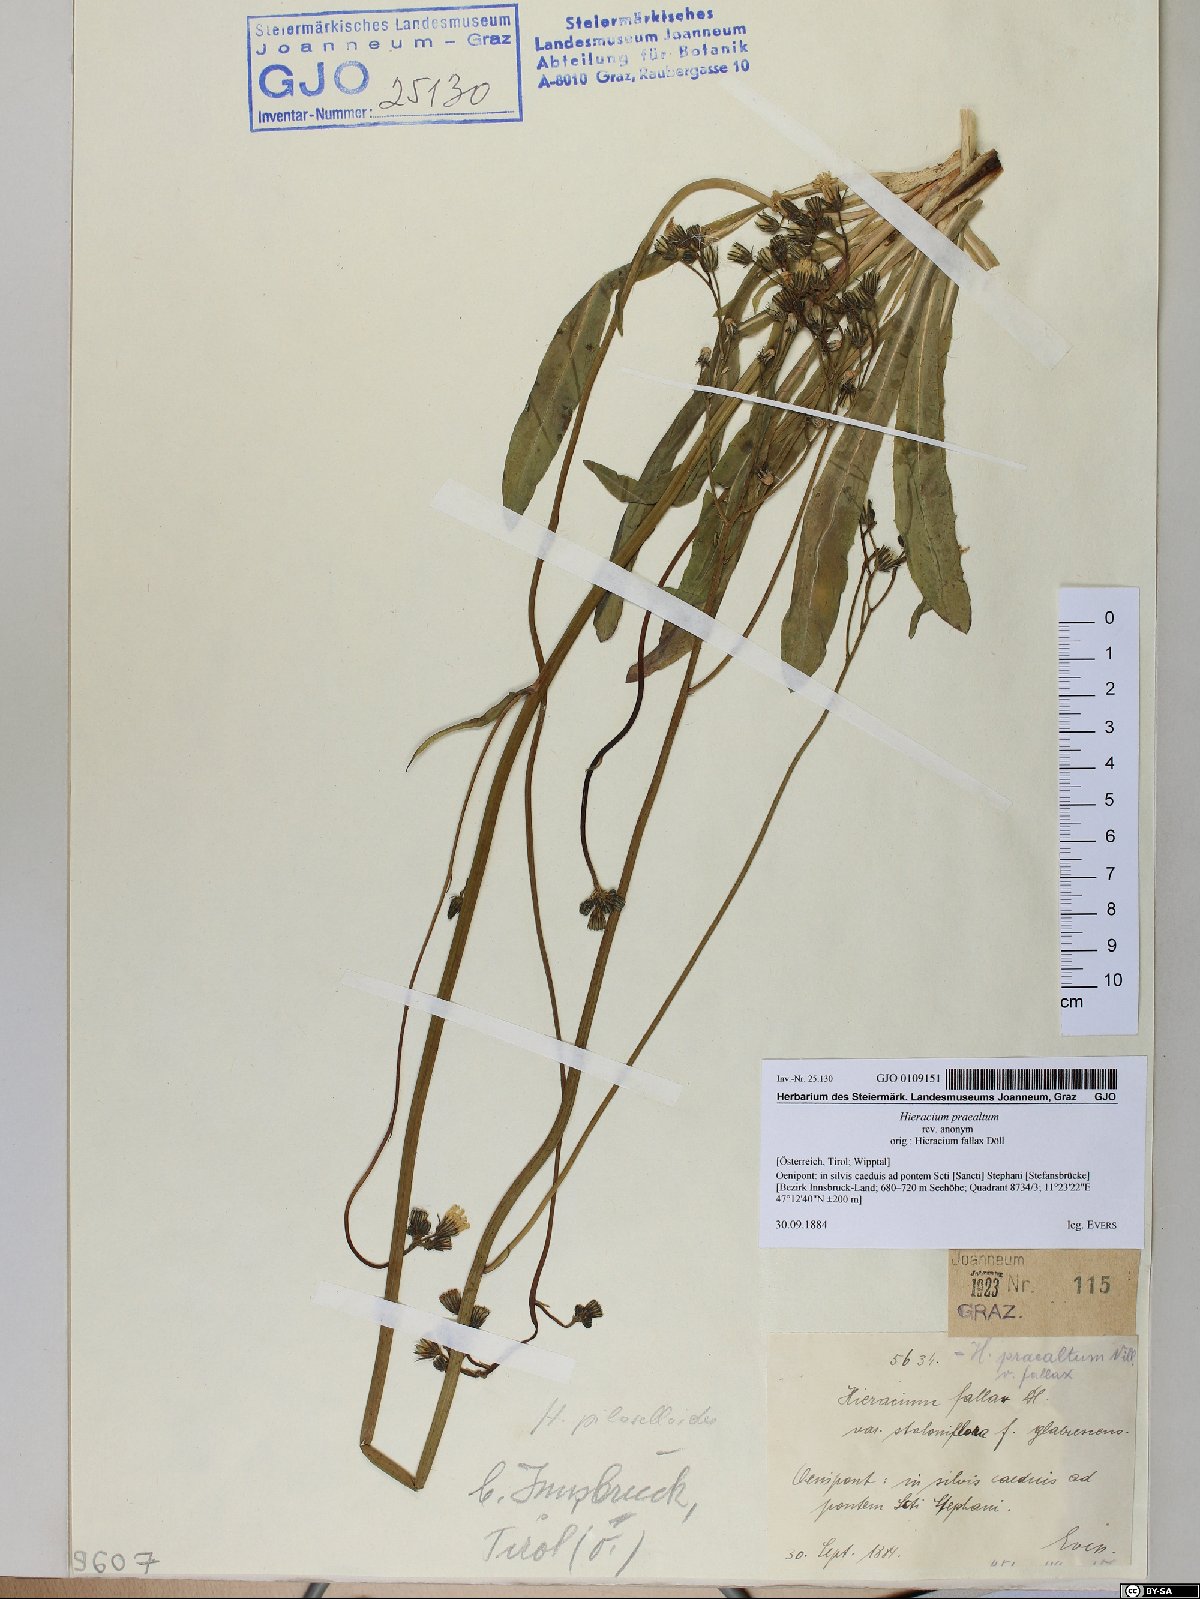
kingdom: Plantae
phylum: Tracheophyta
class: Magnoliopsida
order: Asterales
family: Asteraceae
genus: Pilosella
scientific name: Pilosella piloselloides
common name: Glaucous king-devil
